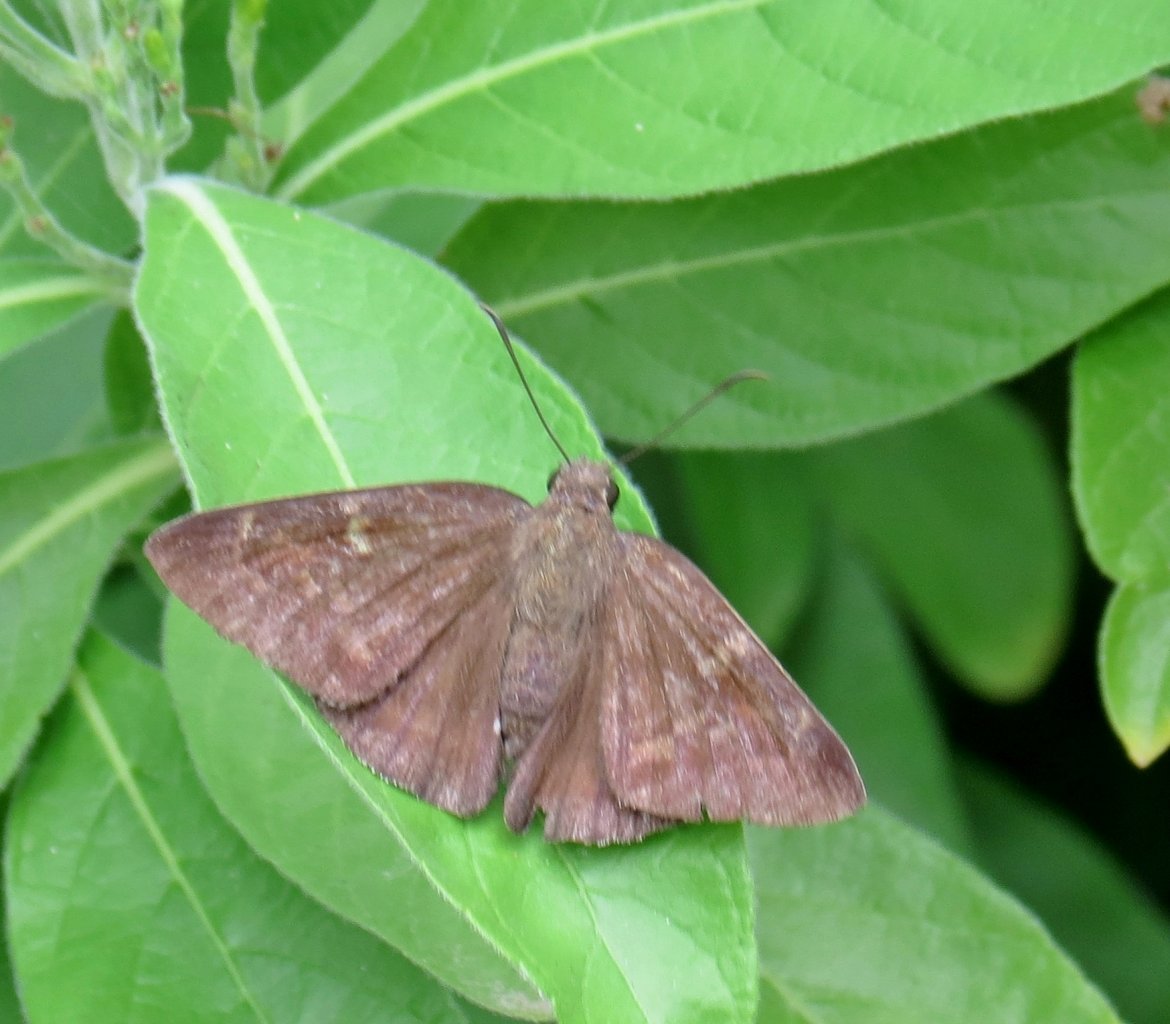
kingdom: Animalia
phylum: Arthropoda
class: Insecta
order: Lepidoptera
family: Hesperiidae
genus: Achalarus
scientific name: Achalarus toxeus
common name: Coyote Cloudywing
